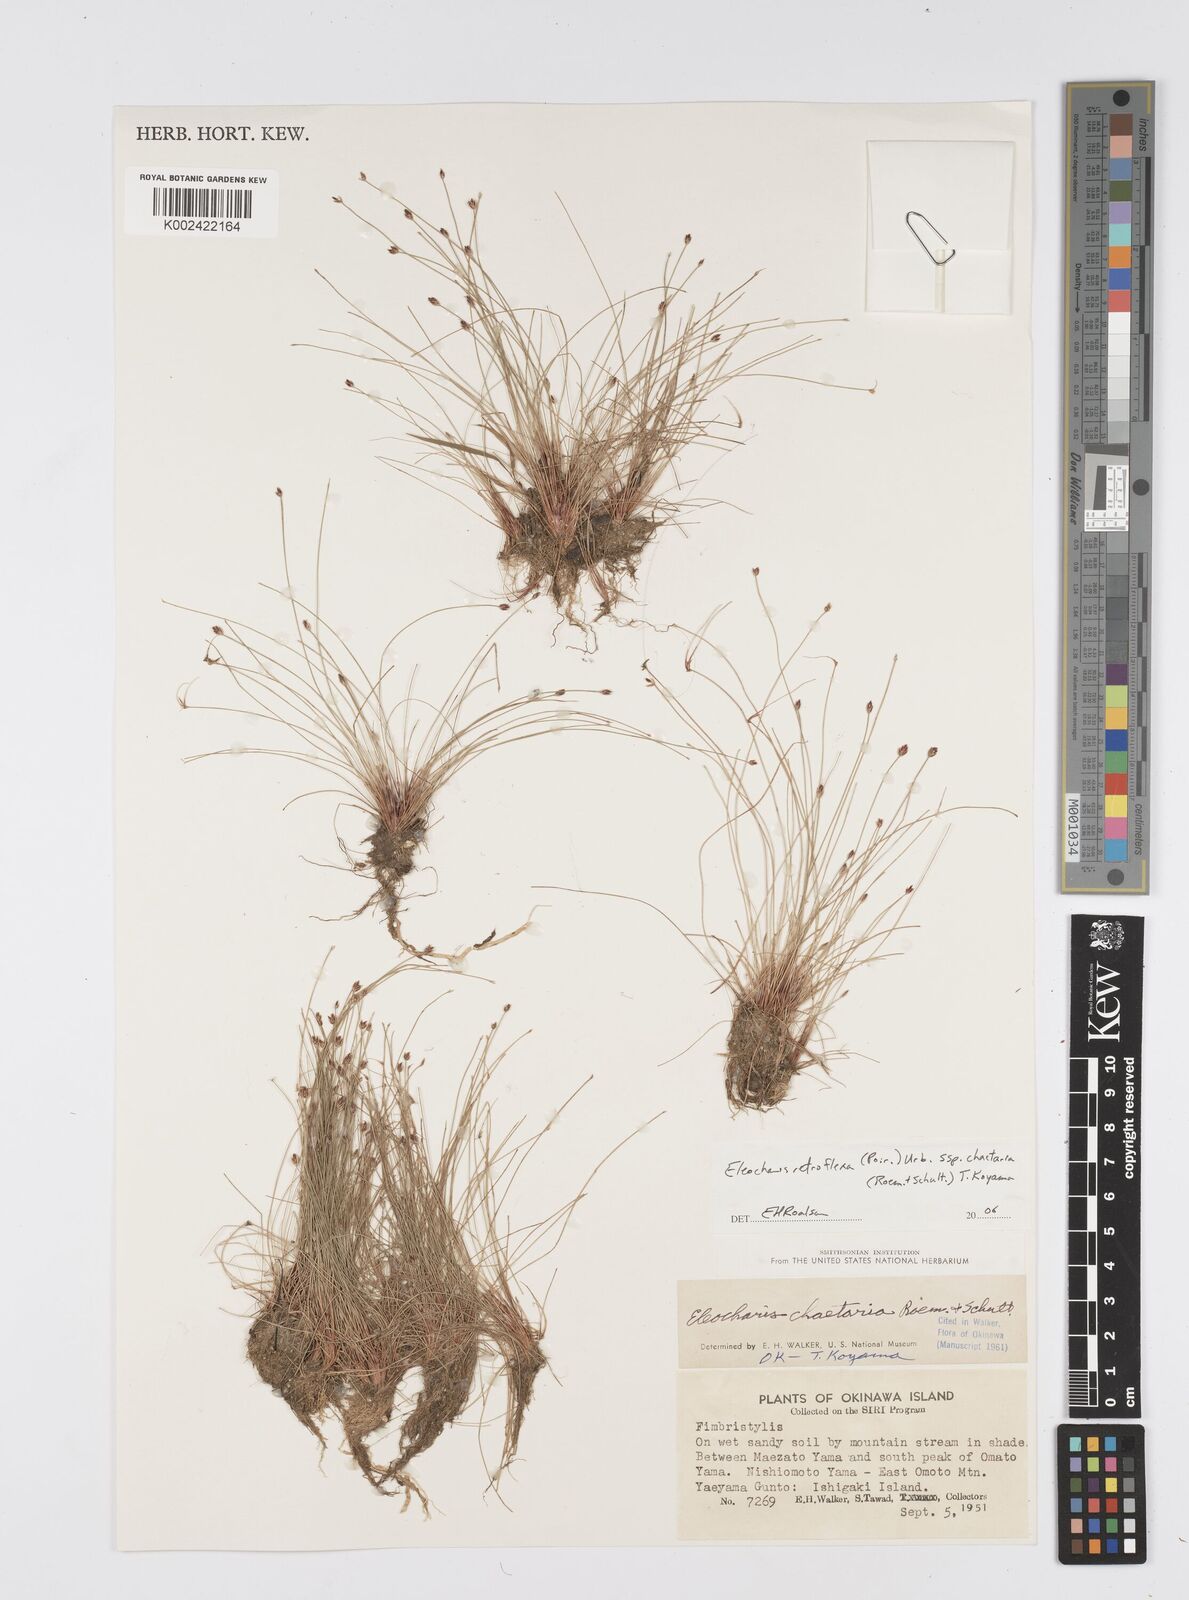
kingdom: Plantae
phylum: Tracheophyta
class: Liliopsida
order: Poales
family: Cyperaceae
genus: Eleocharis
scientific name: Eleocharis retroflexa
